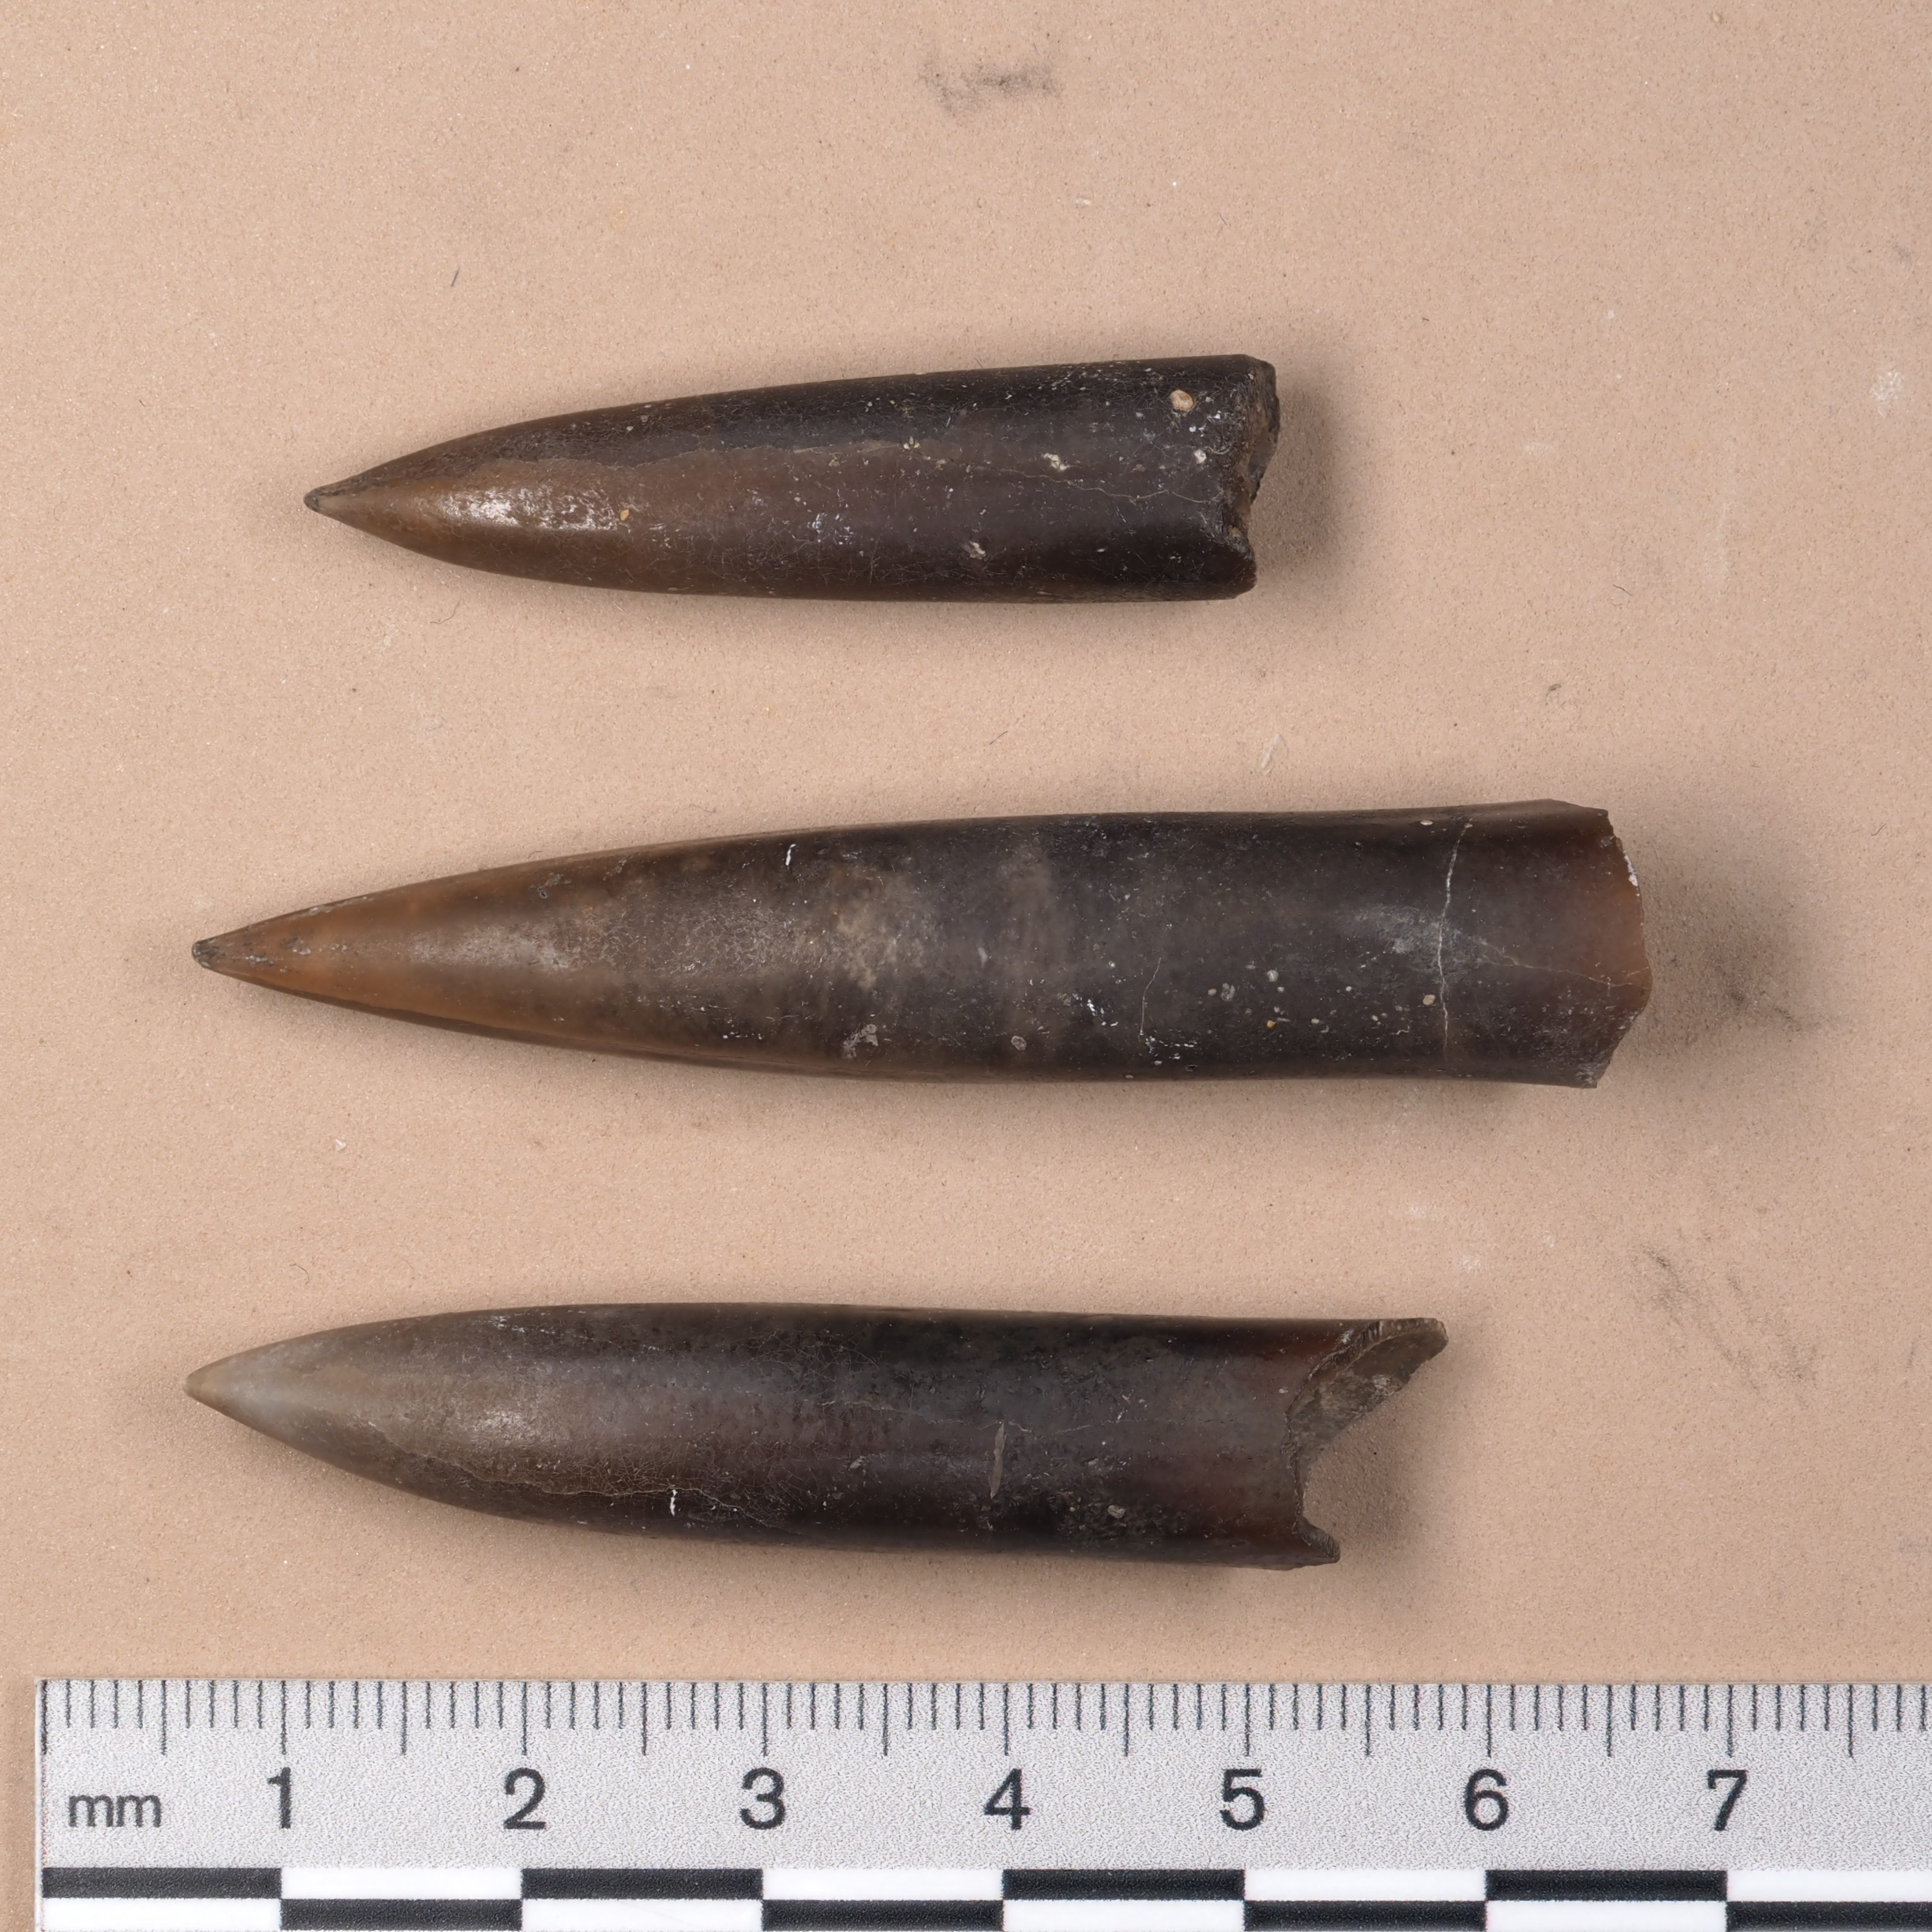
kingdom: Animalia
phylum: Mollusca
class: Cephalopoda
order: Belemnitida
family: Passaloteuthidae
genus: Passaloteuthis
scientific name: Passaloteuthis
